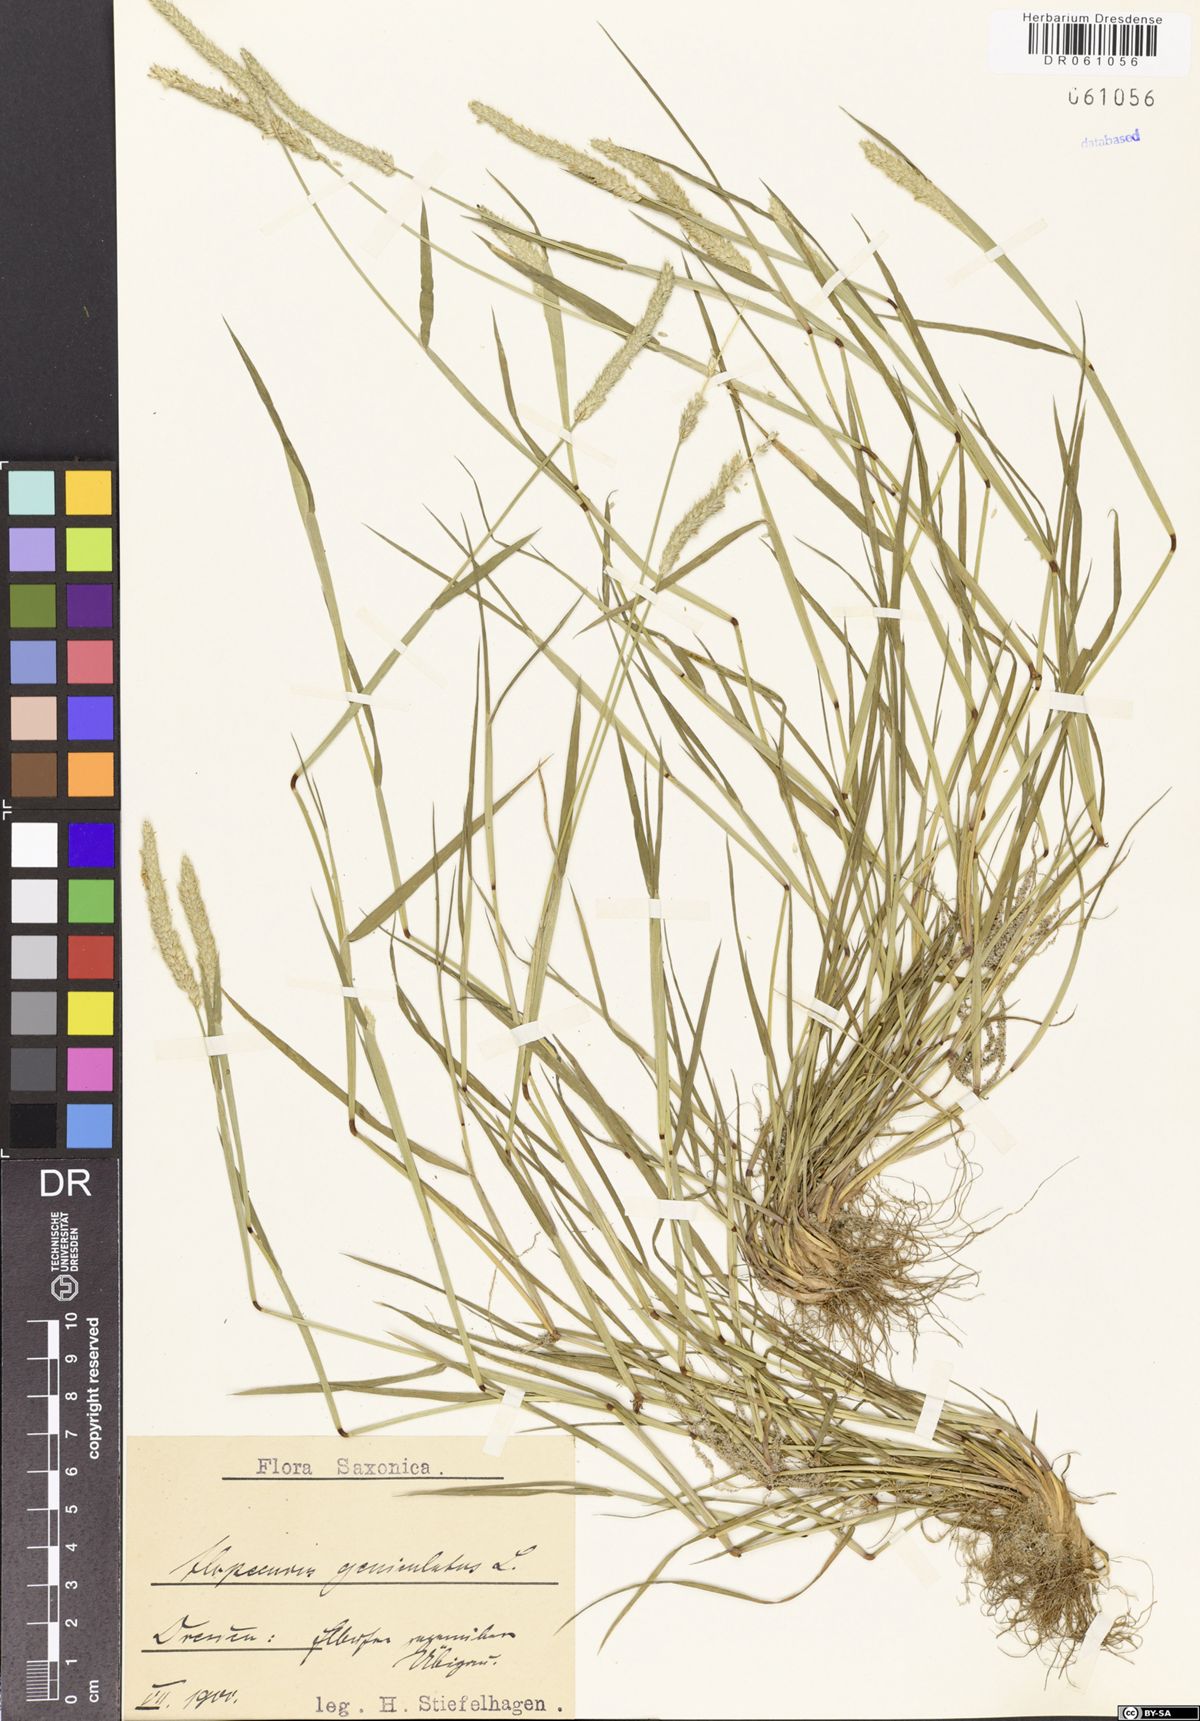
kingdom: Plantae
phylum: Tracheophyta
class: Liliopsida
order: Poales
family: Poaceae
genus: Alopecurus
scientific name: Alopecurus geniculatus
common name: Water foxtail
